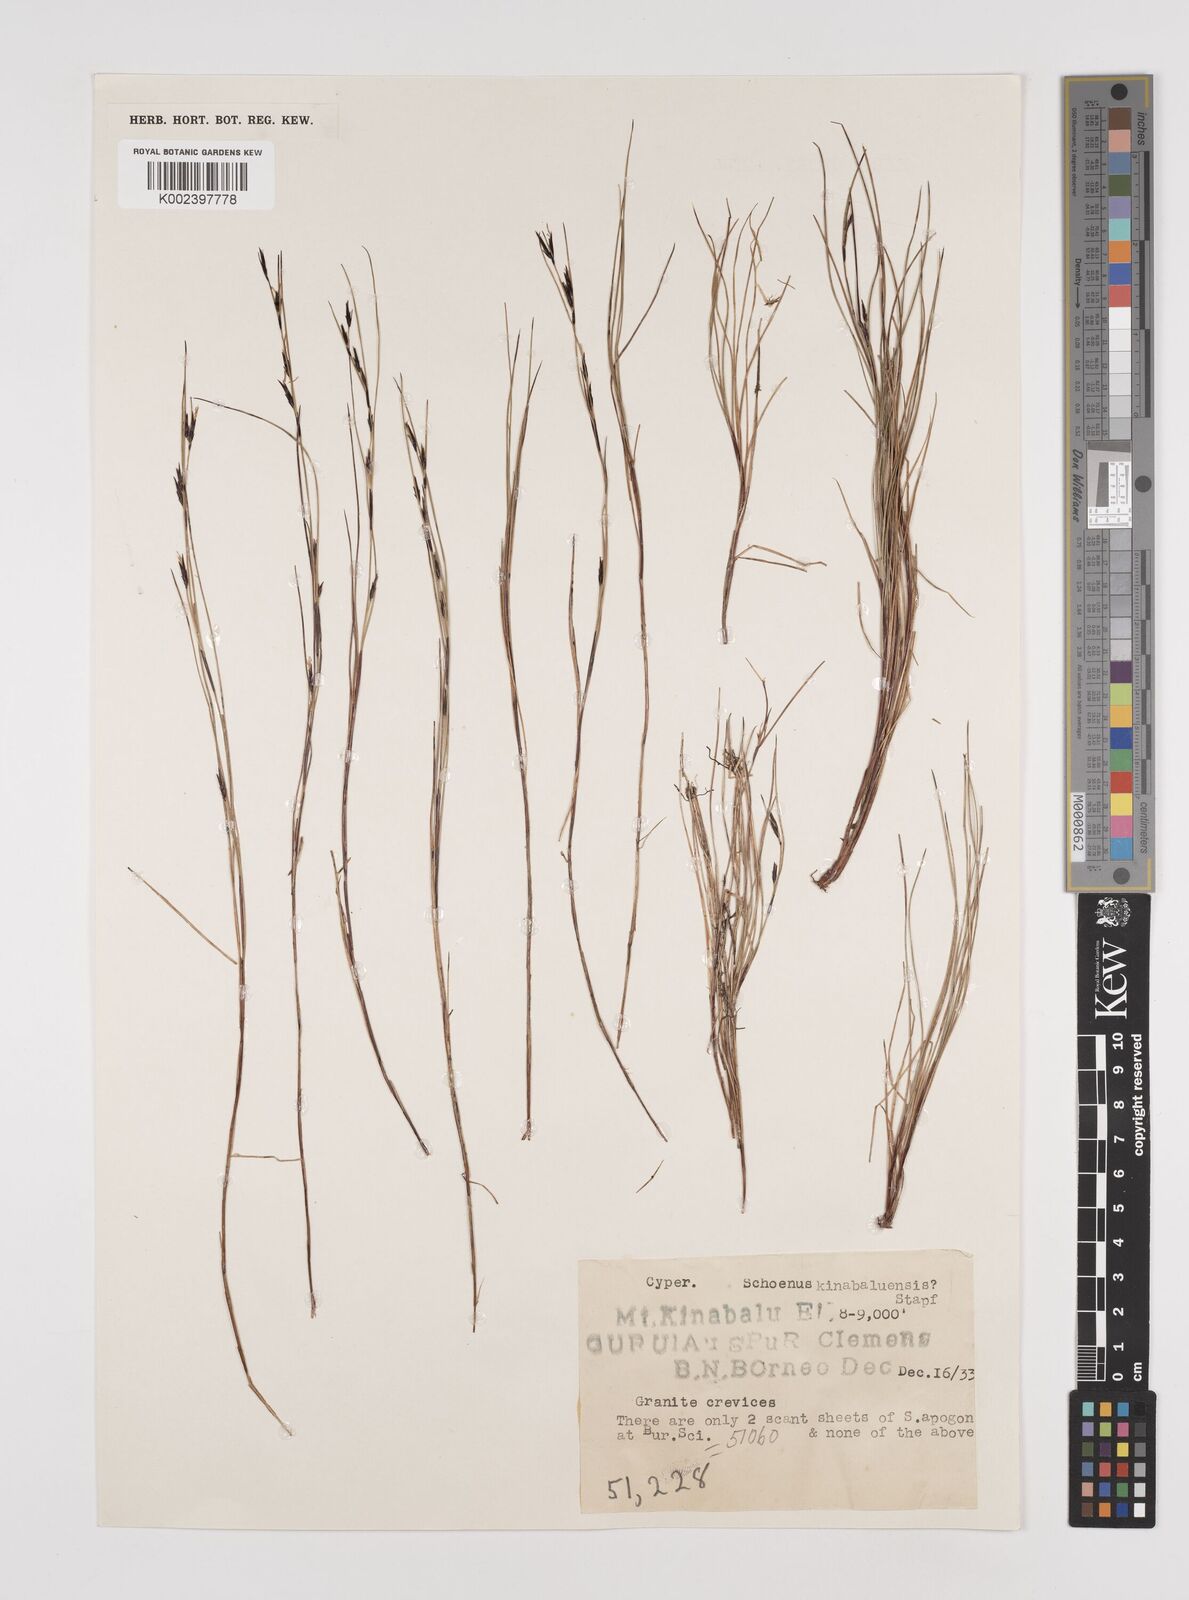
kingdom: Plantae
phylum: Tracheophyta
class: Liliopsida
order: Poales
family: Cyperaceae
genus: Schoenus
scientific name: Schoenus curvulus
